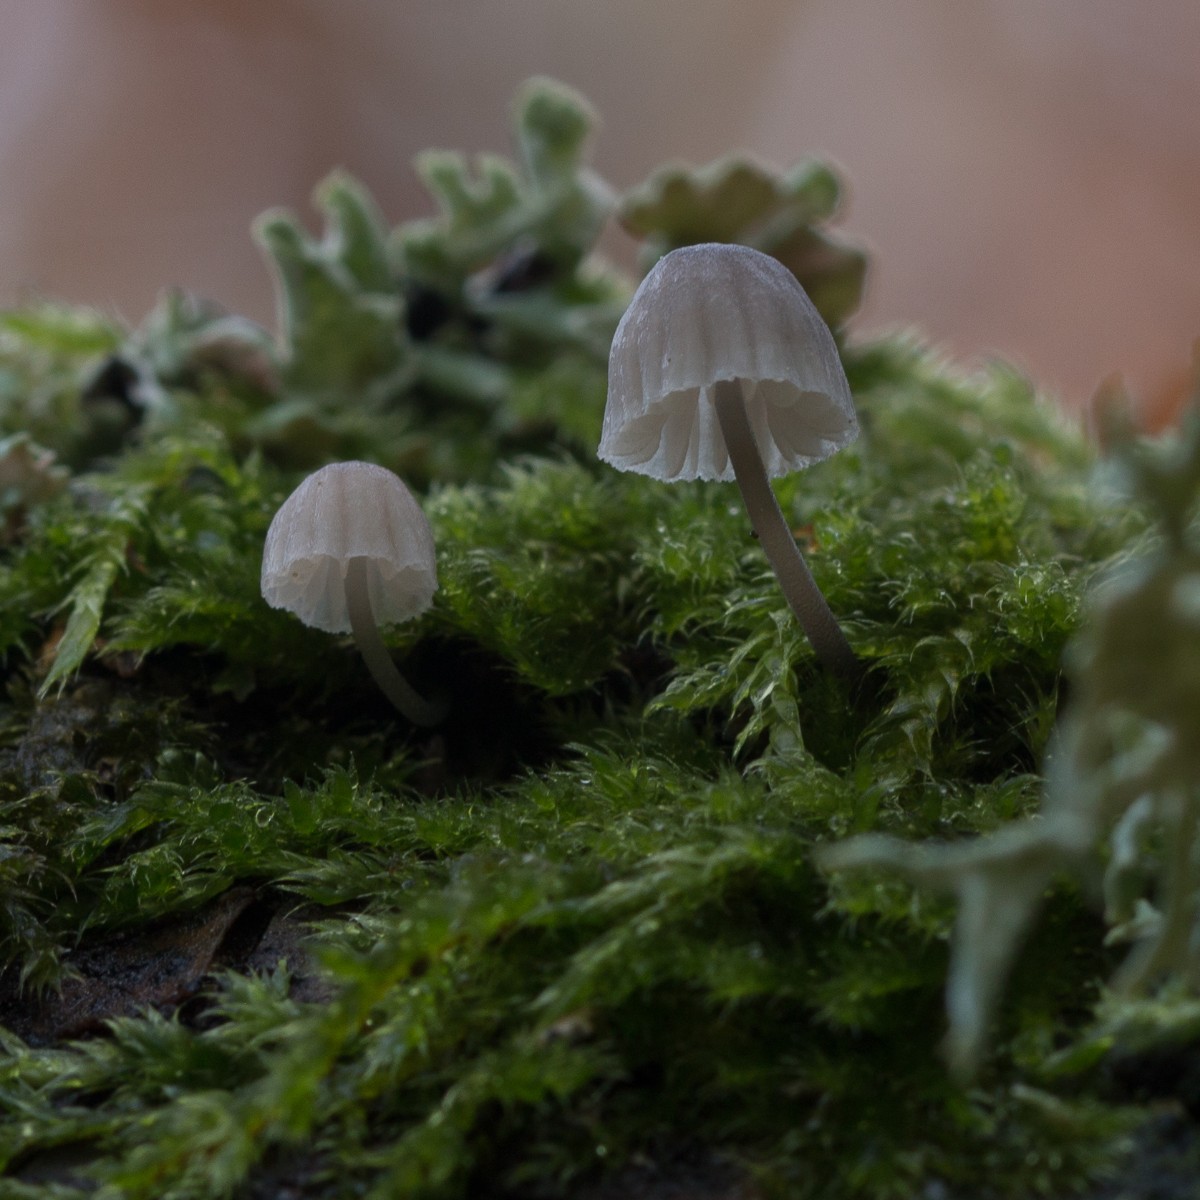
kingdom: Fungi
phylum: Basidiomycota
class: Agaricomycetes
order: Agaricales
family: Mycenaceae
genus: Mycena
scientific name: Mycena pseudocorticola
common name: gråblå bark-huesvamp
